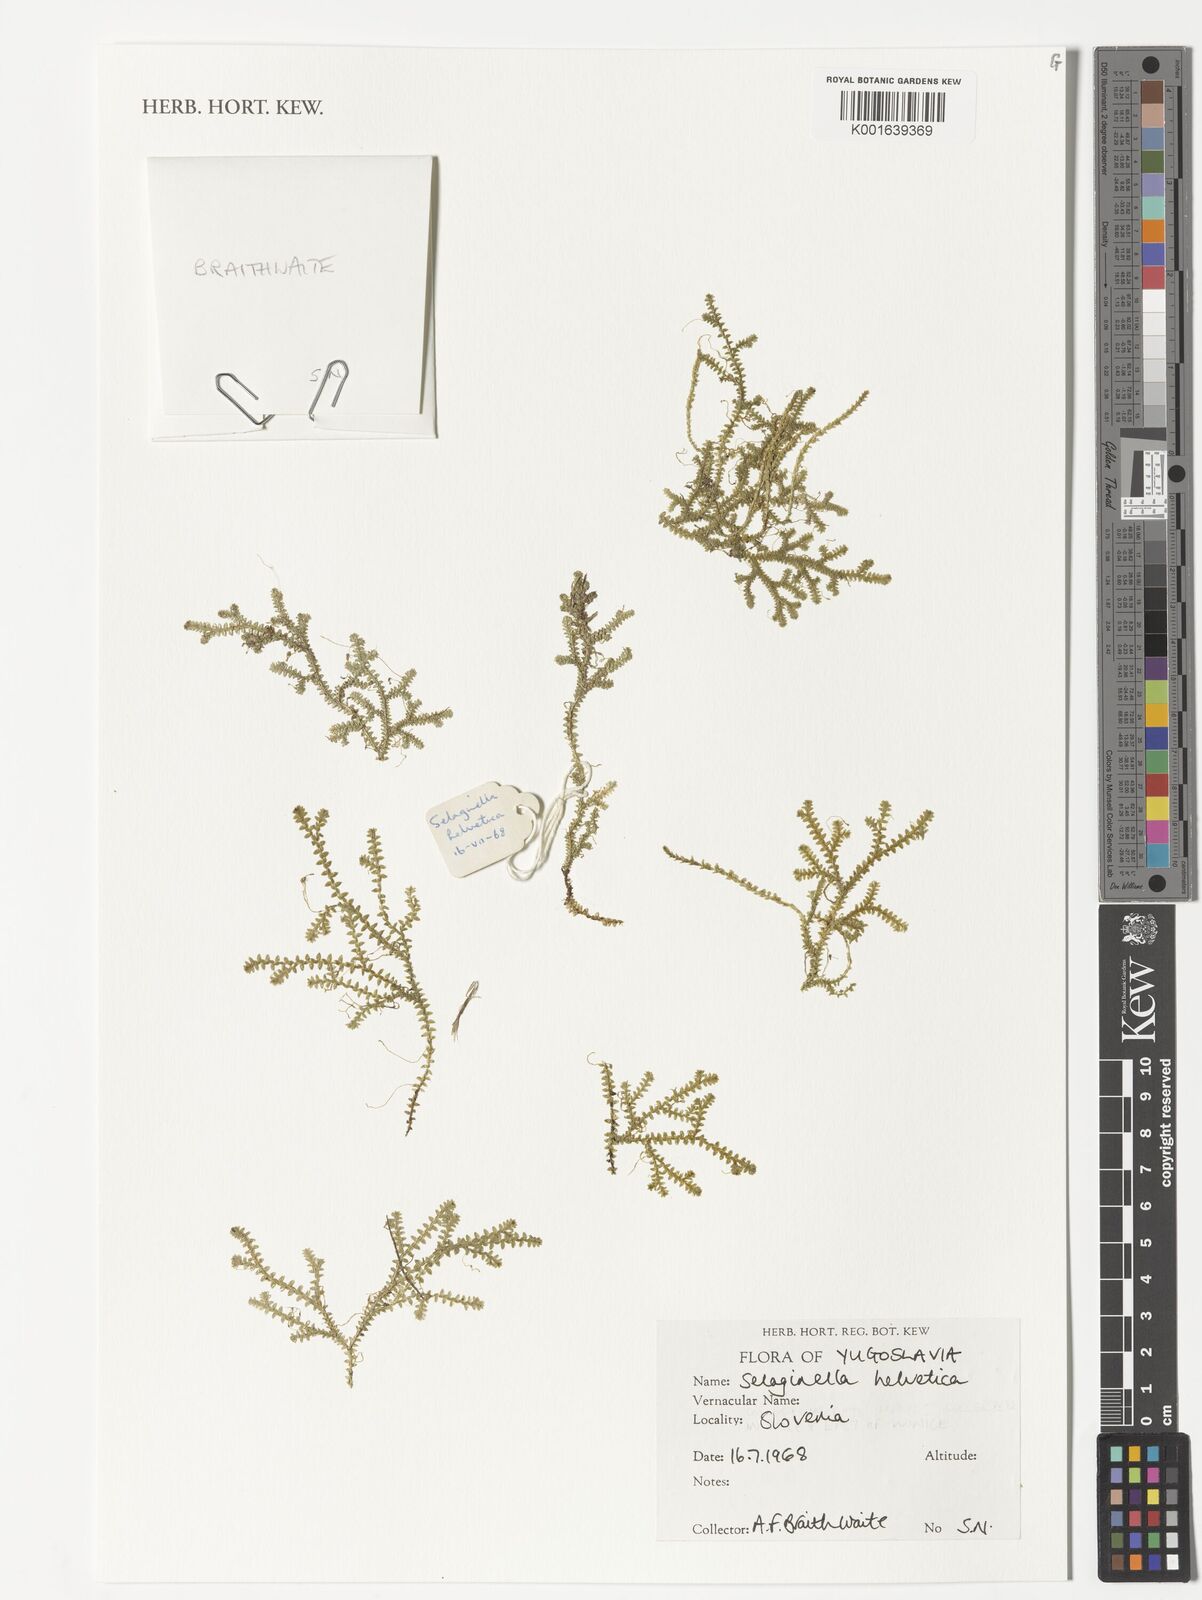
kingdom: Plantae
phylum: Tracheophyta
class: Lycopodiopsida
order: Selaginellales
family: Selaginellaceae
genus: Selaginella
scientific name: Selaginella helvetica
